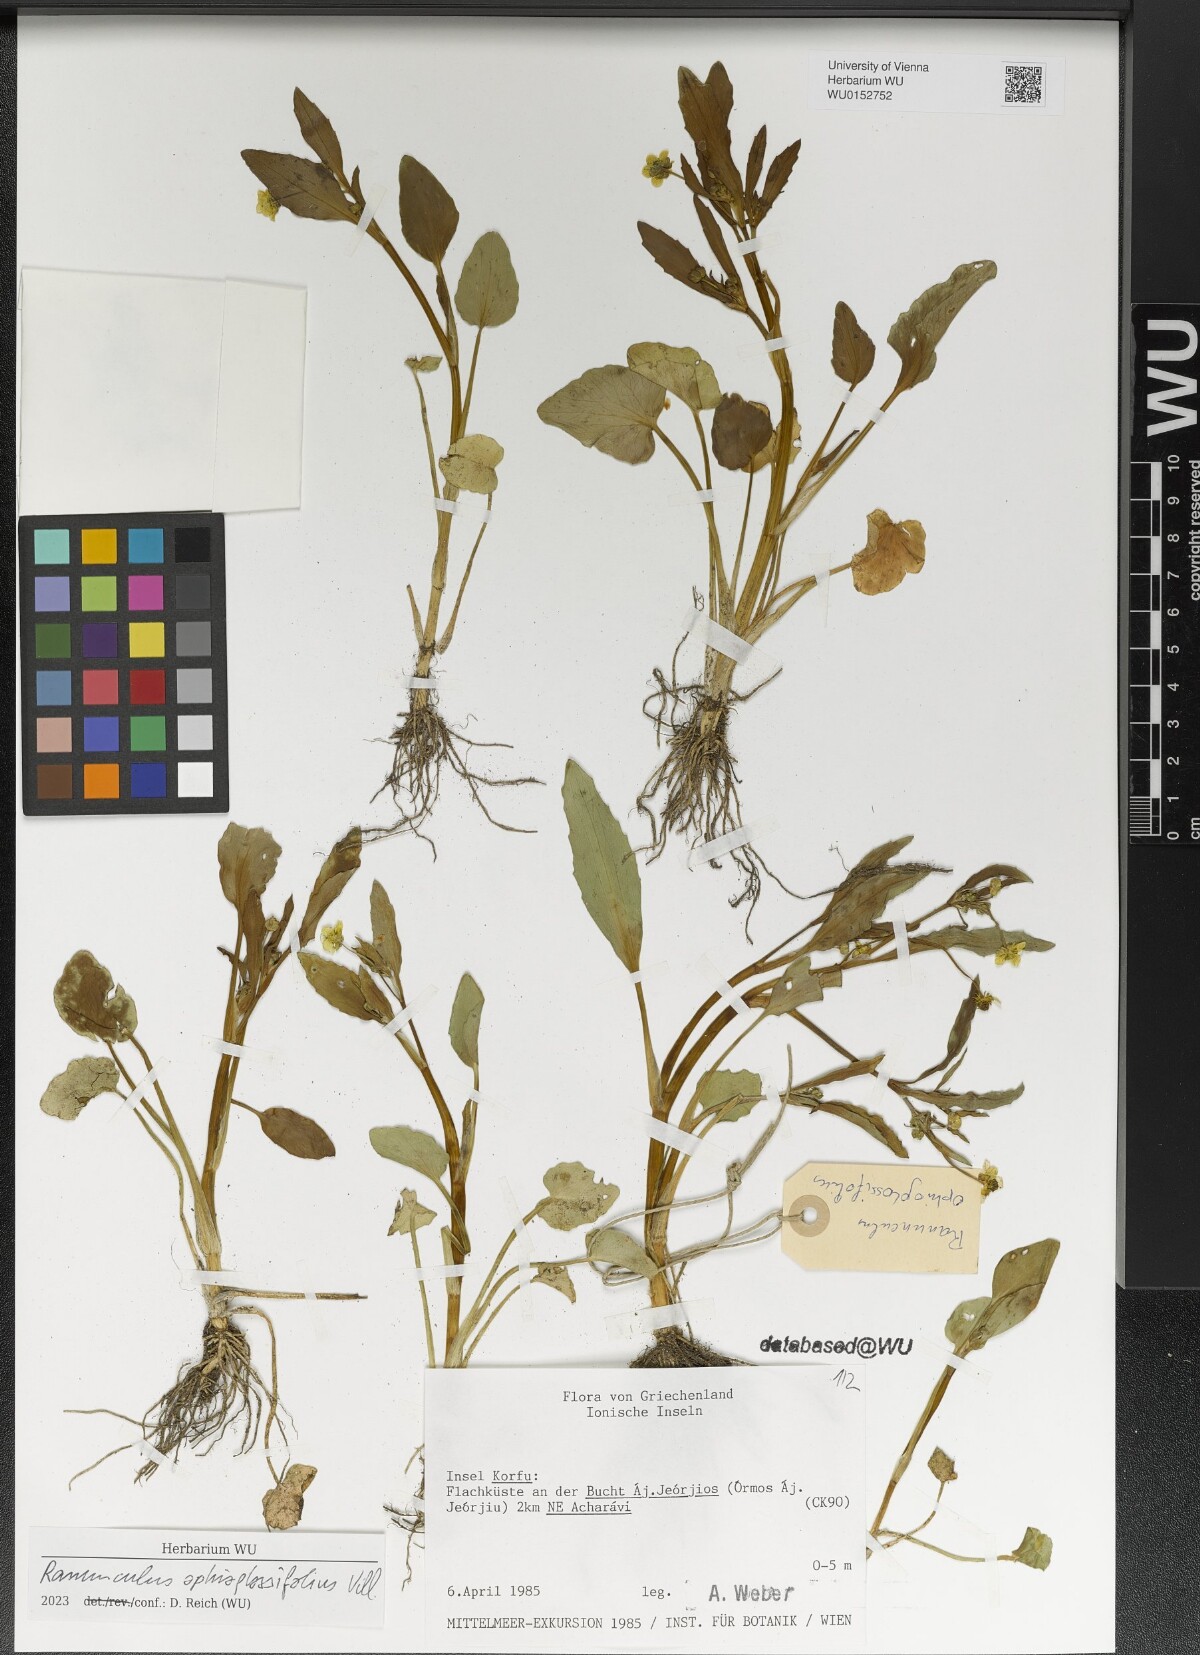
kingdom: Plantae
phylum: Tracheophyta
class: Magnoliopsida
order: Ranunculales
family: Ranunculaceae
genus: Ranunculus
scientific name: Ranunculus ophioglossifolius
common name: Adder's-tongue spearwort
